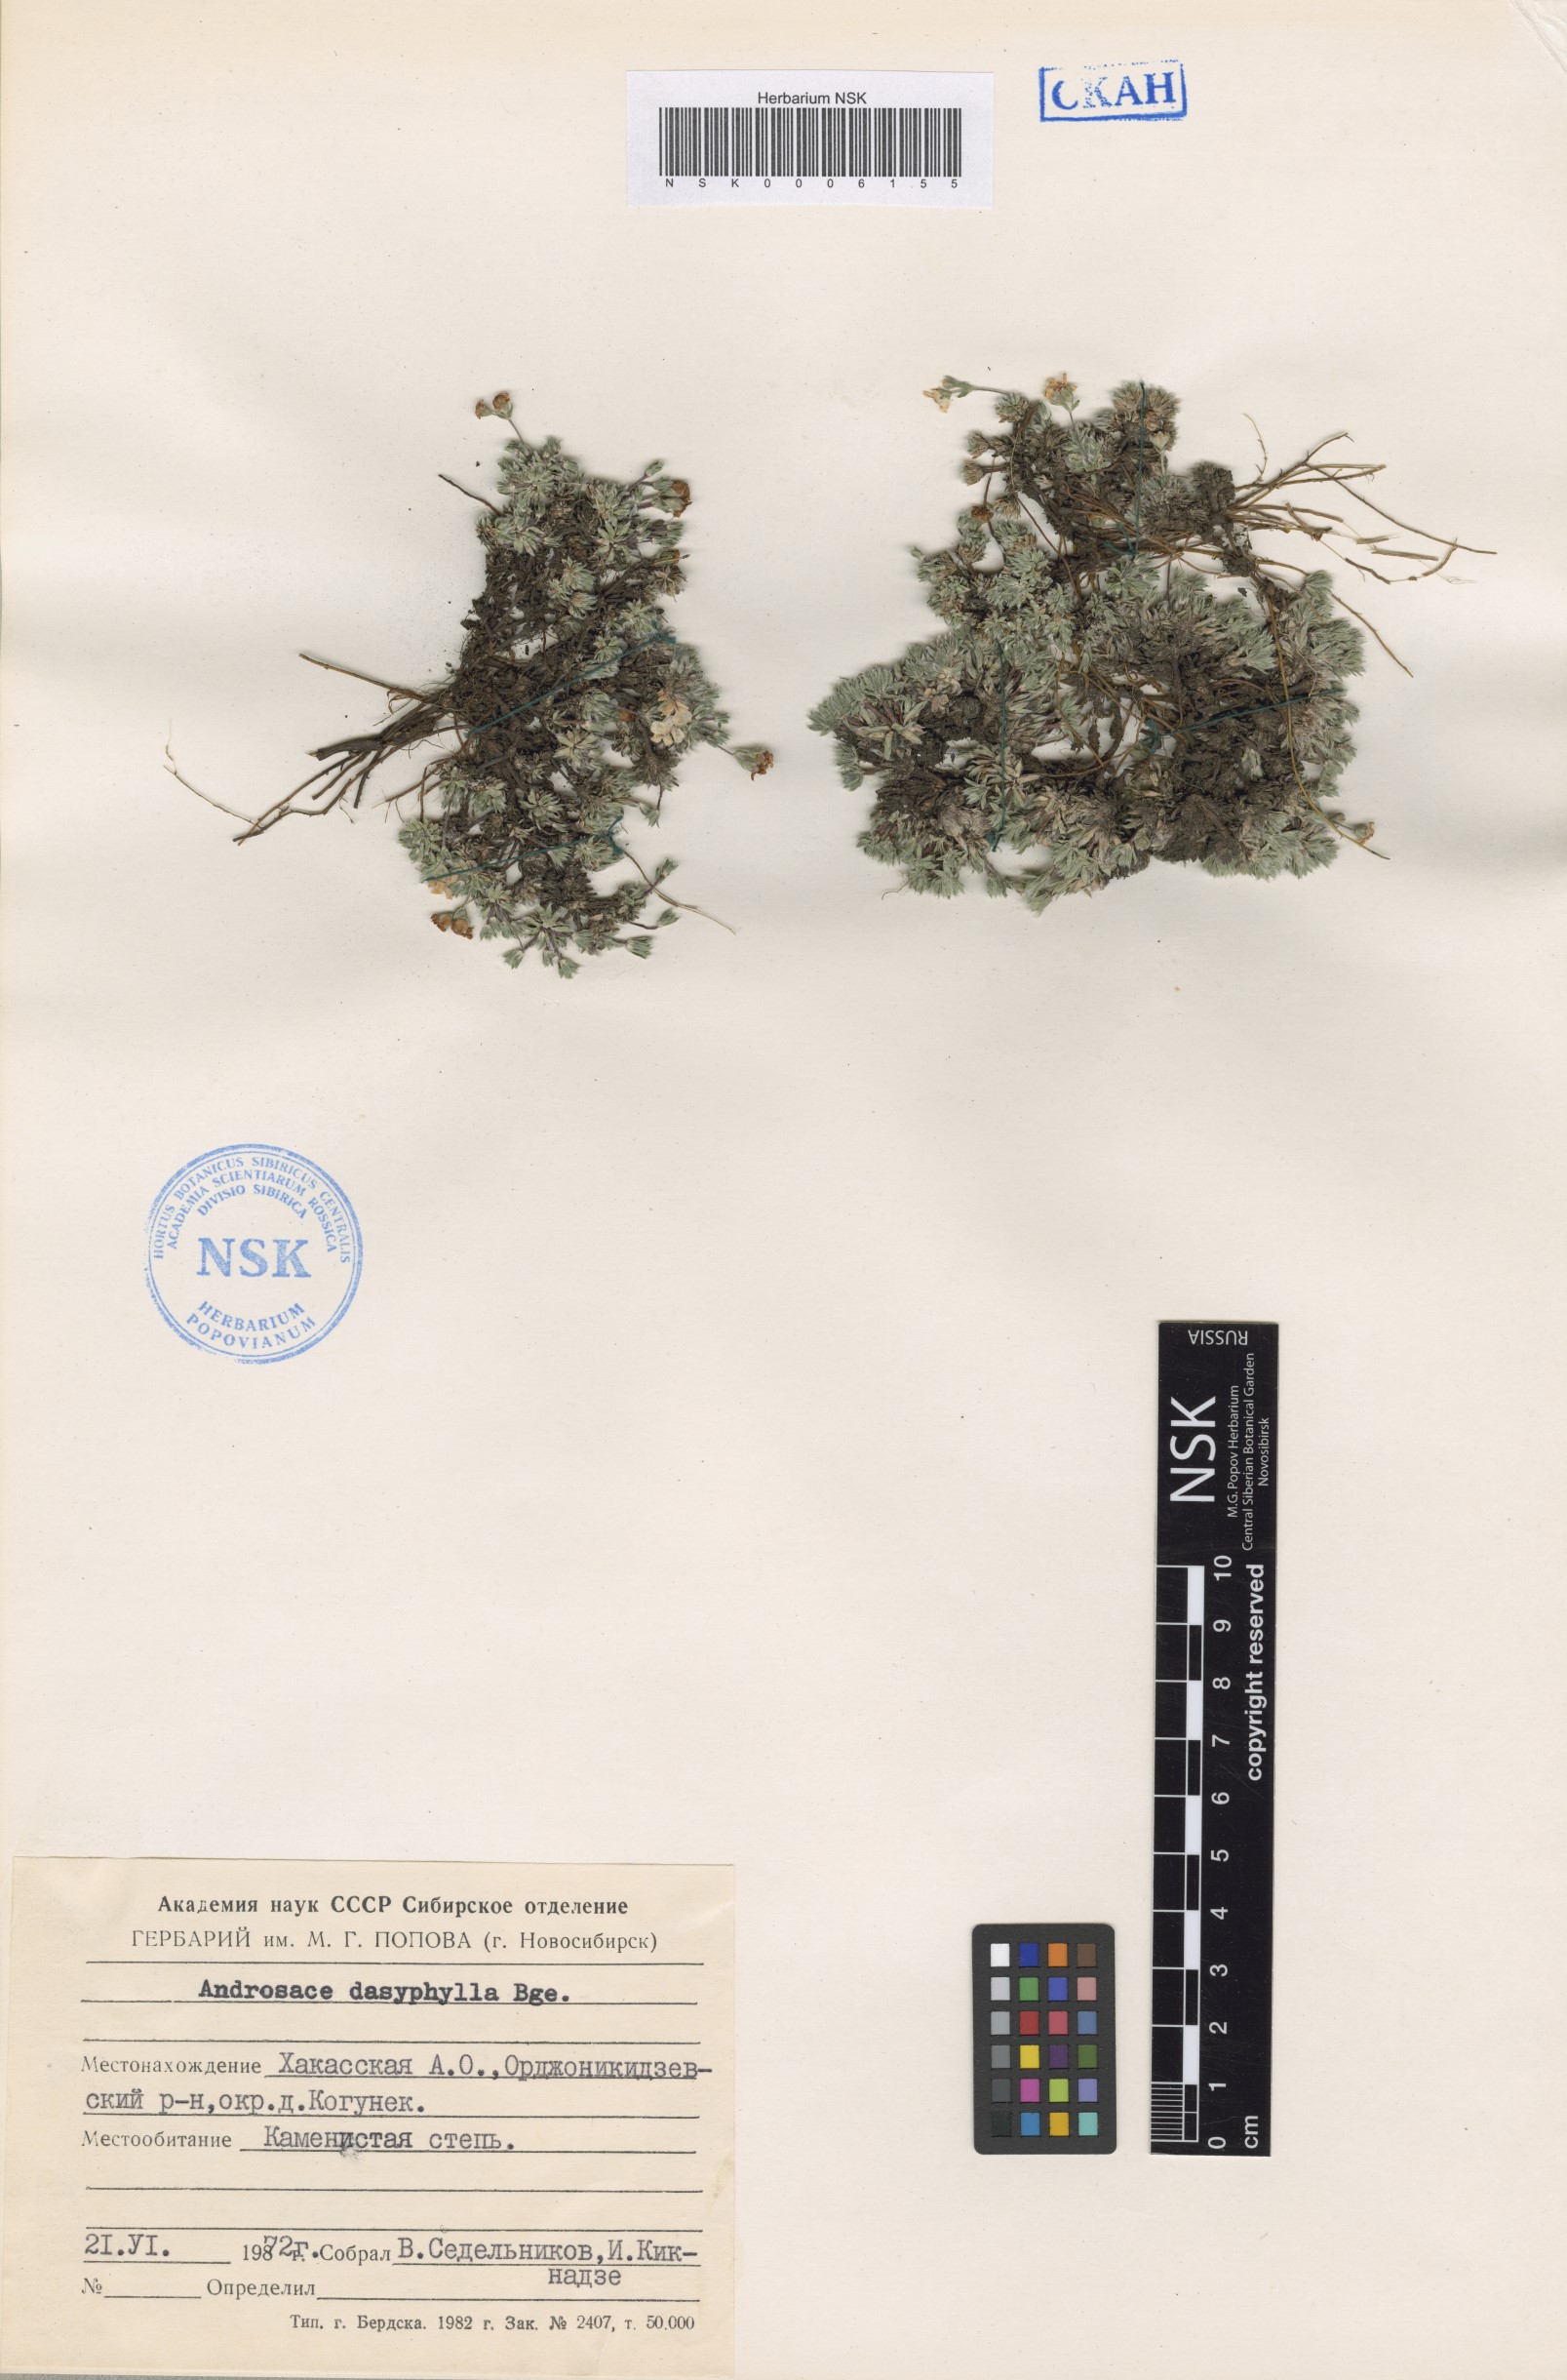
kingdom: Plantae
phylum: Tracheophyta
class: Magnoliopsida
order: Ericales
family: Primulaceae
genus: Androsace
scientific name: Androsace dasyphylla
